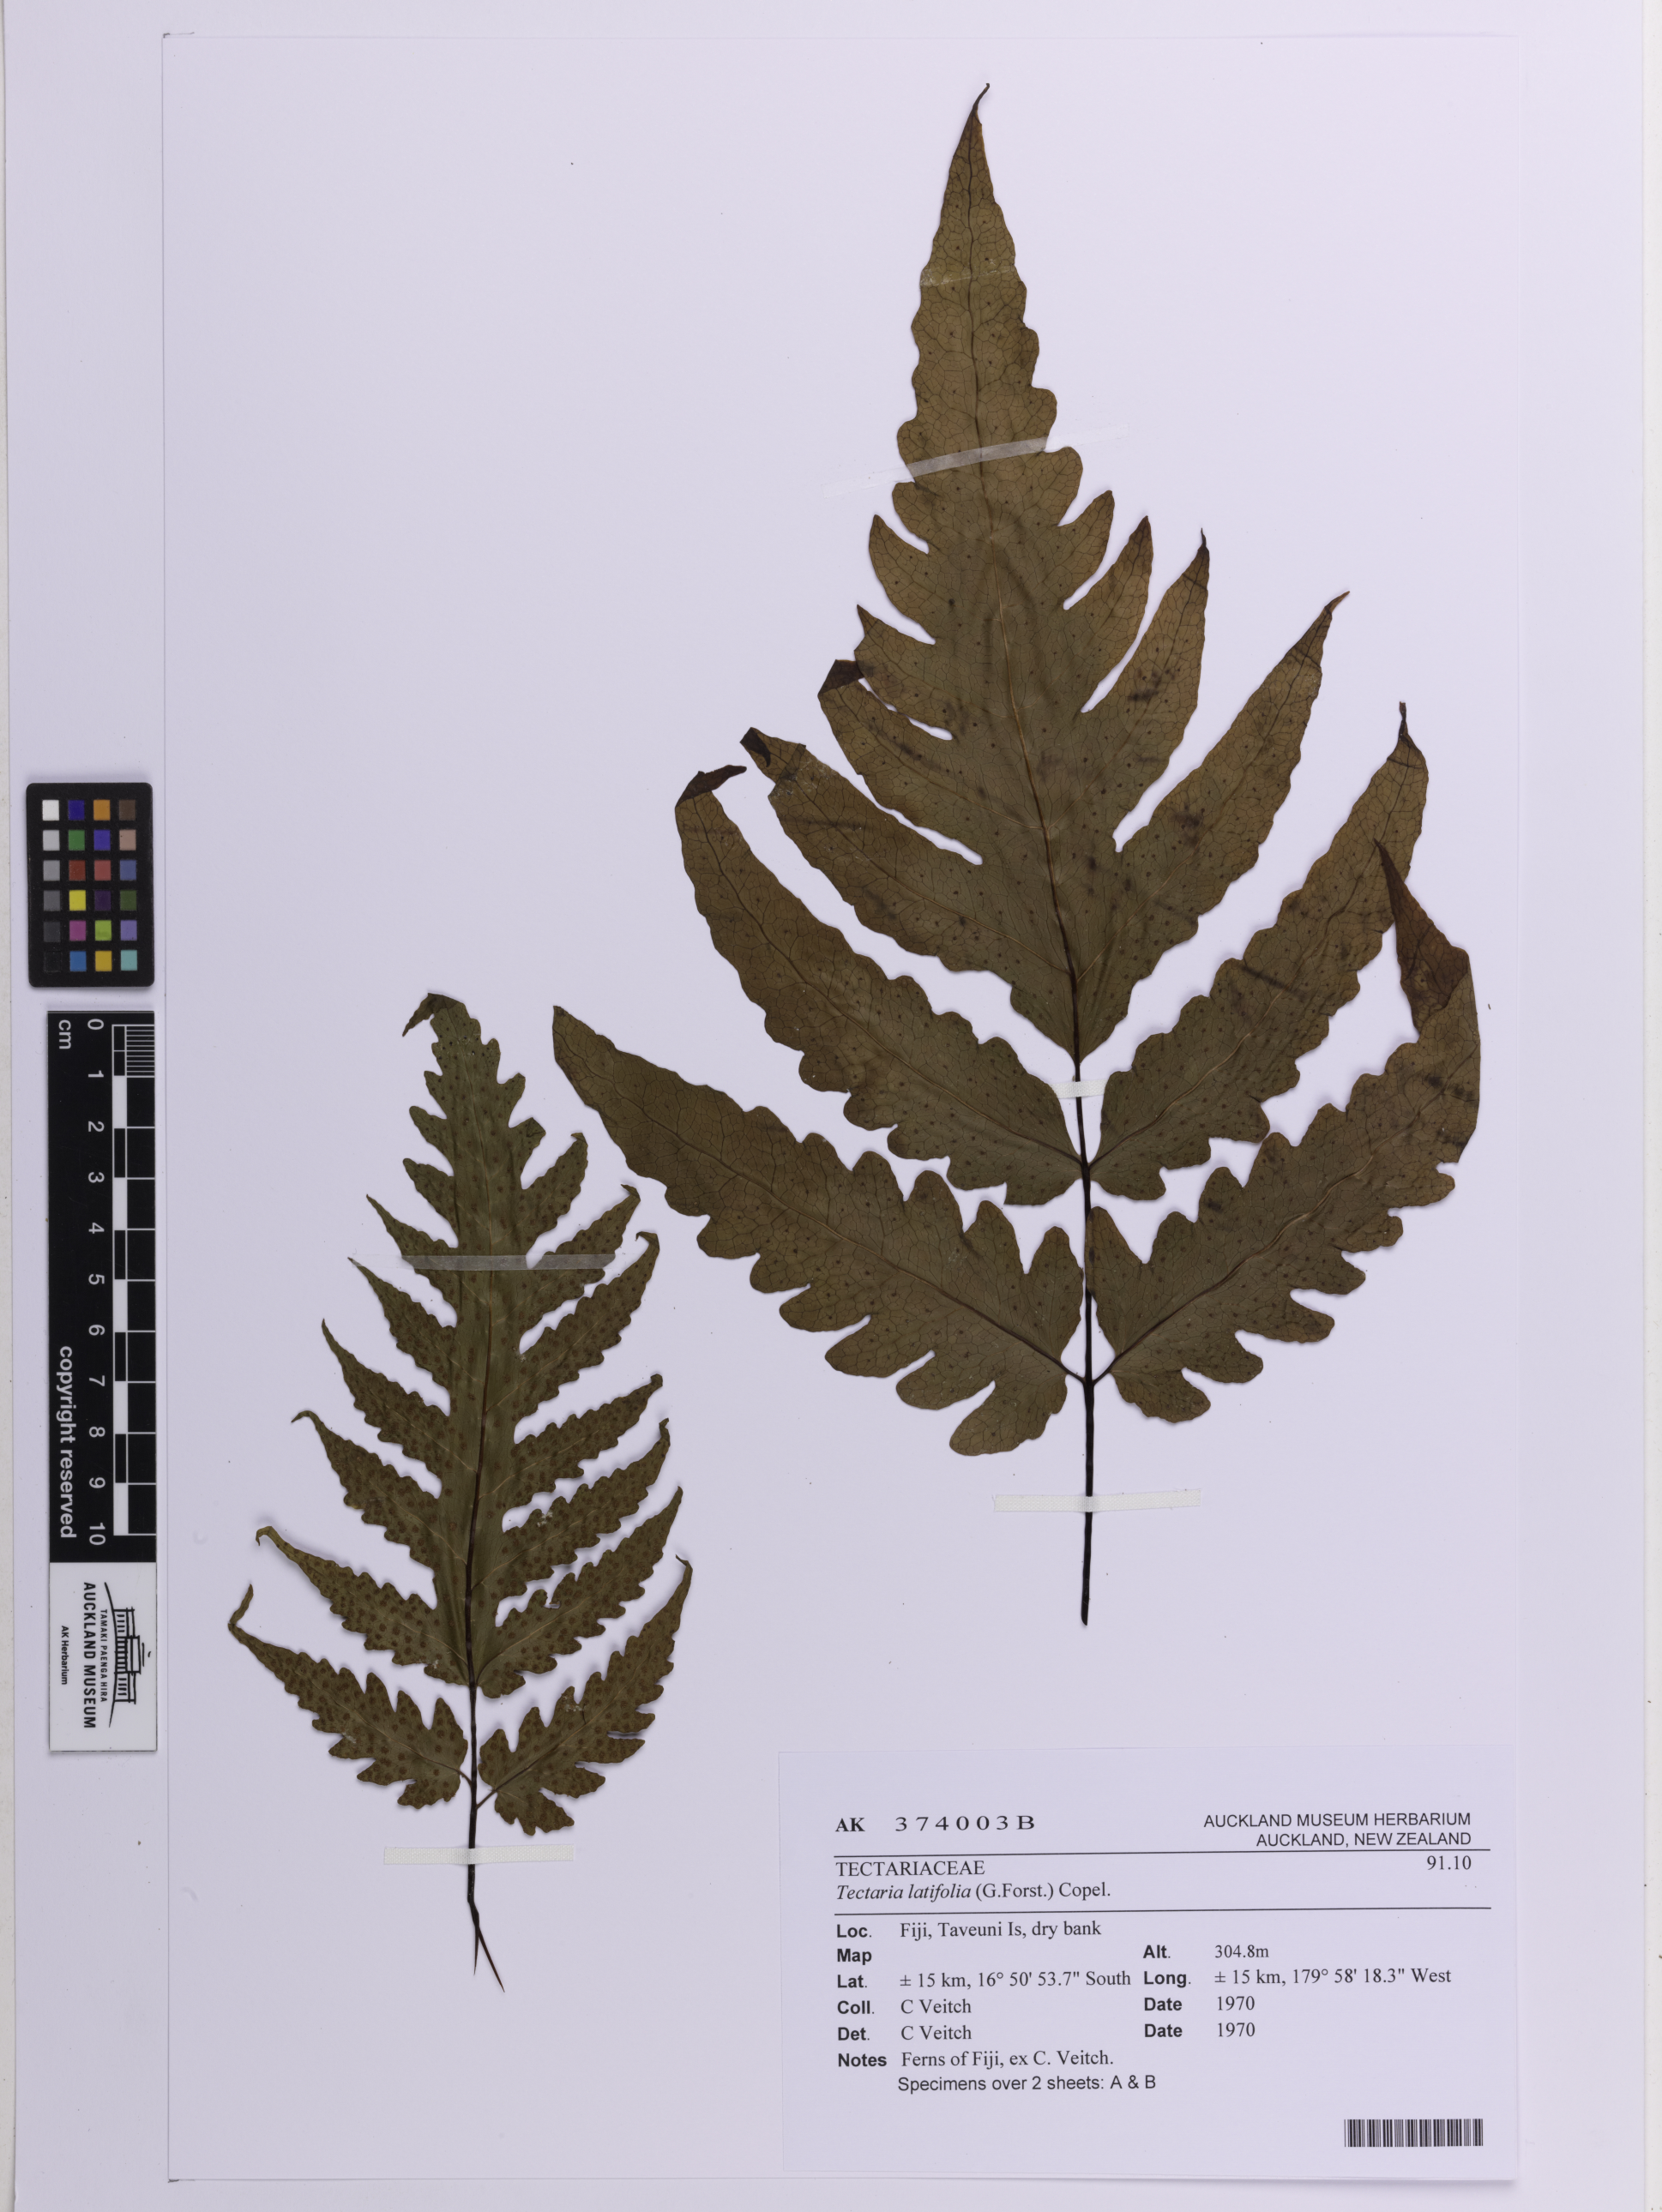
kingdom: Plantae
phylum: Tracheophyta
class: Polypodiopsida
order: Polypodiales
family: Tectariaceae
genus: Tectaria
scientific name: Tectaria latifolia
